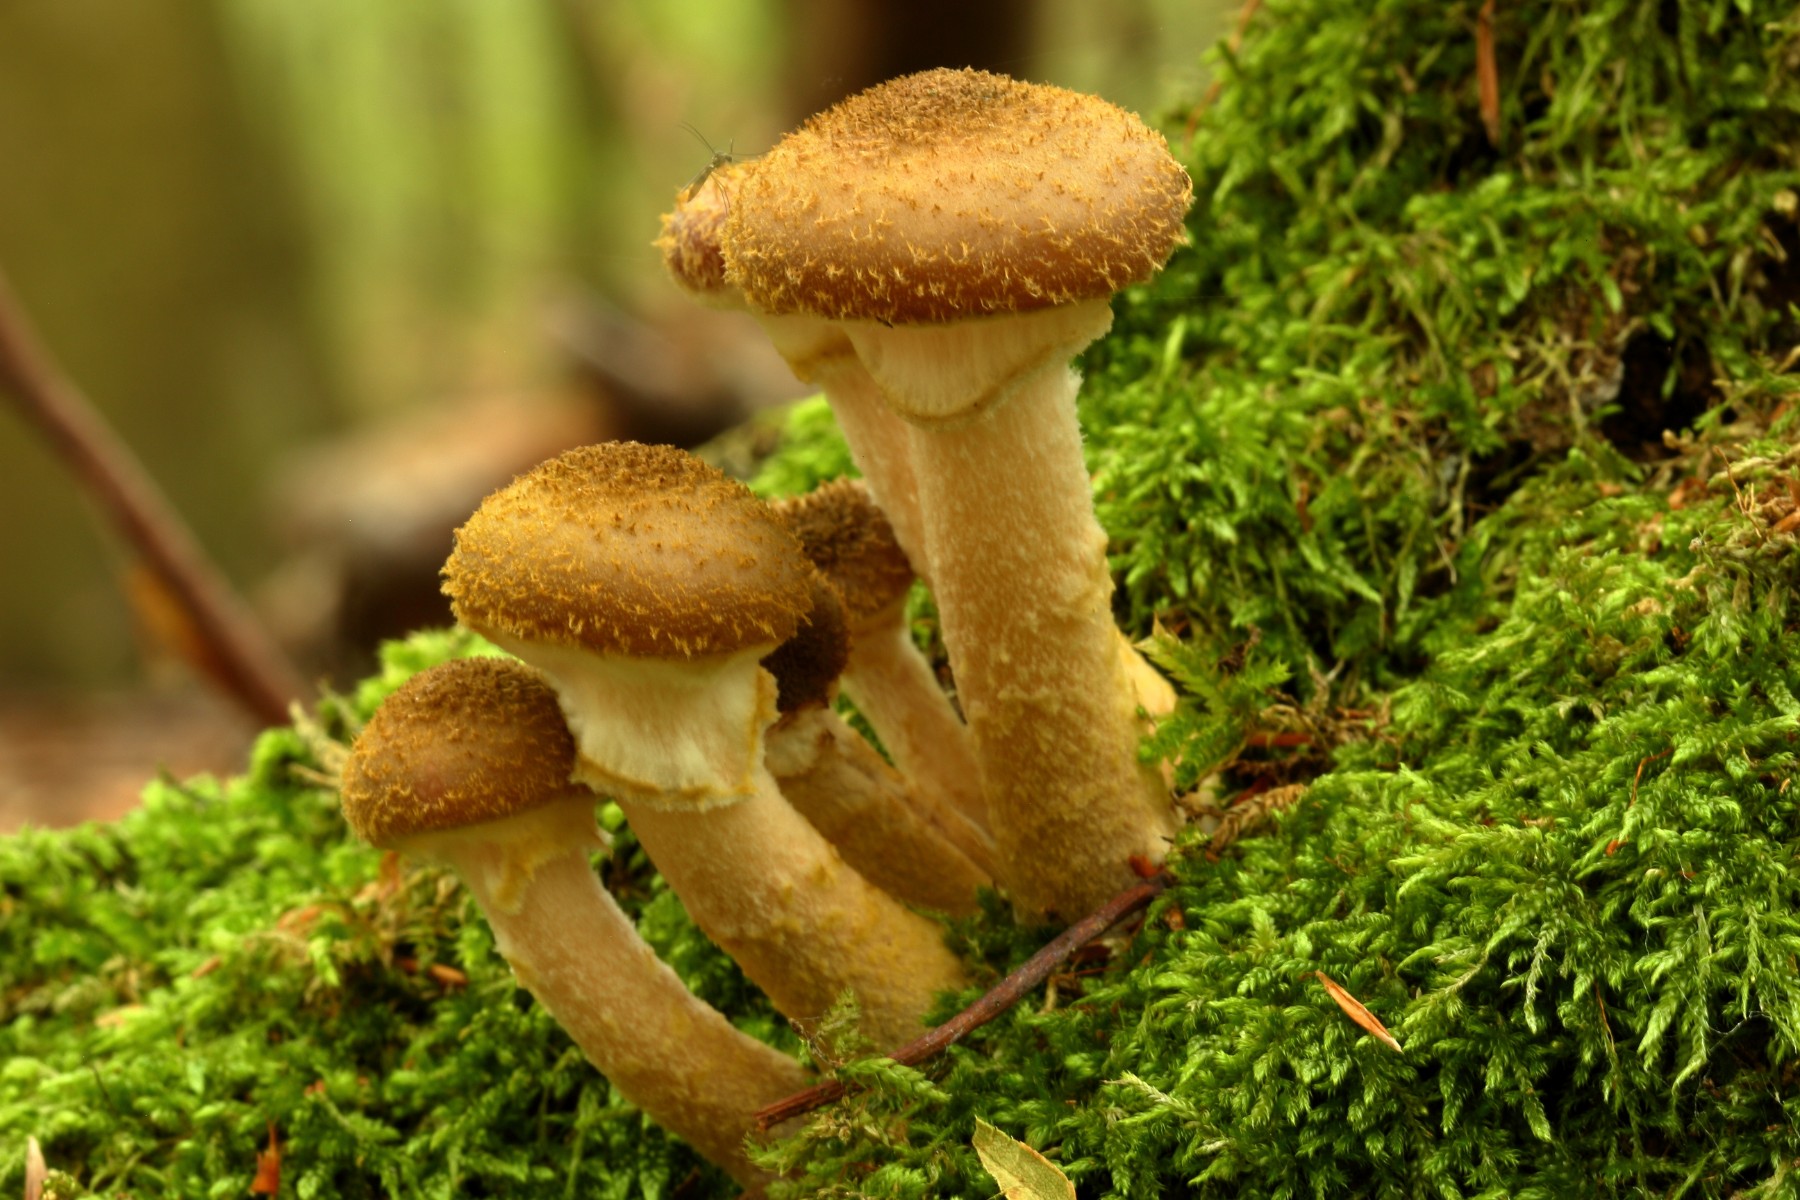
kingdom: Fungi
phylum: Basidiomycota
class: Agaricomycetes
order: Agaricales
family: Physalacriaceae
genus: Armillaria
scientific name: Armillaria lutea
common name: køllestokket honningsvamp
